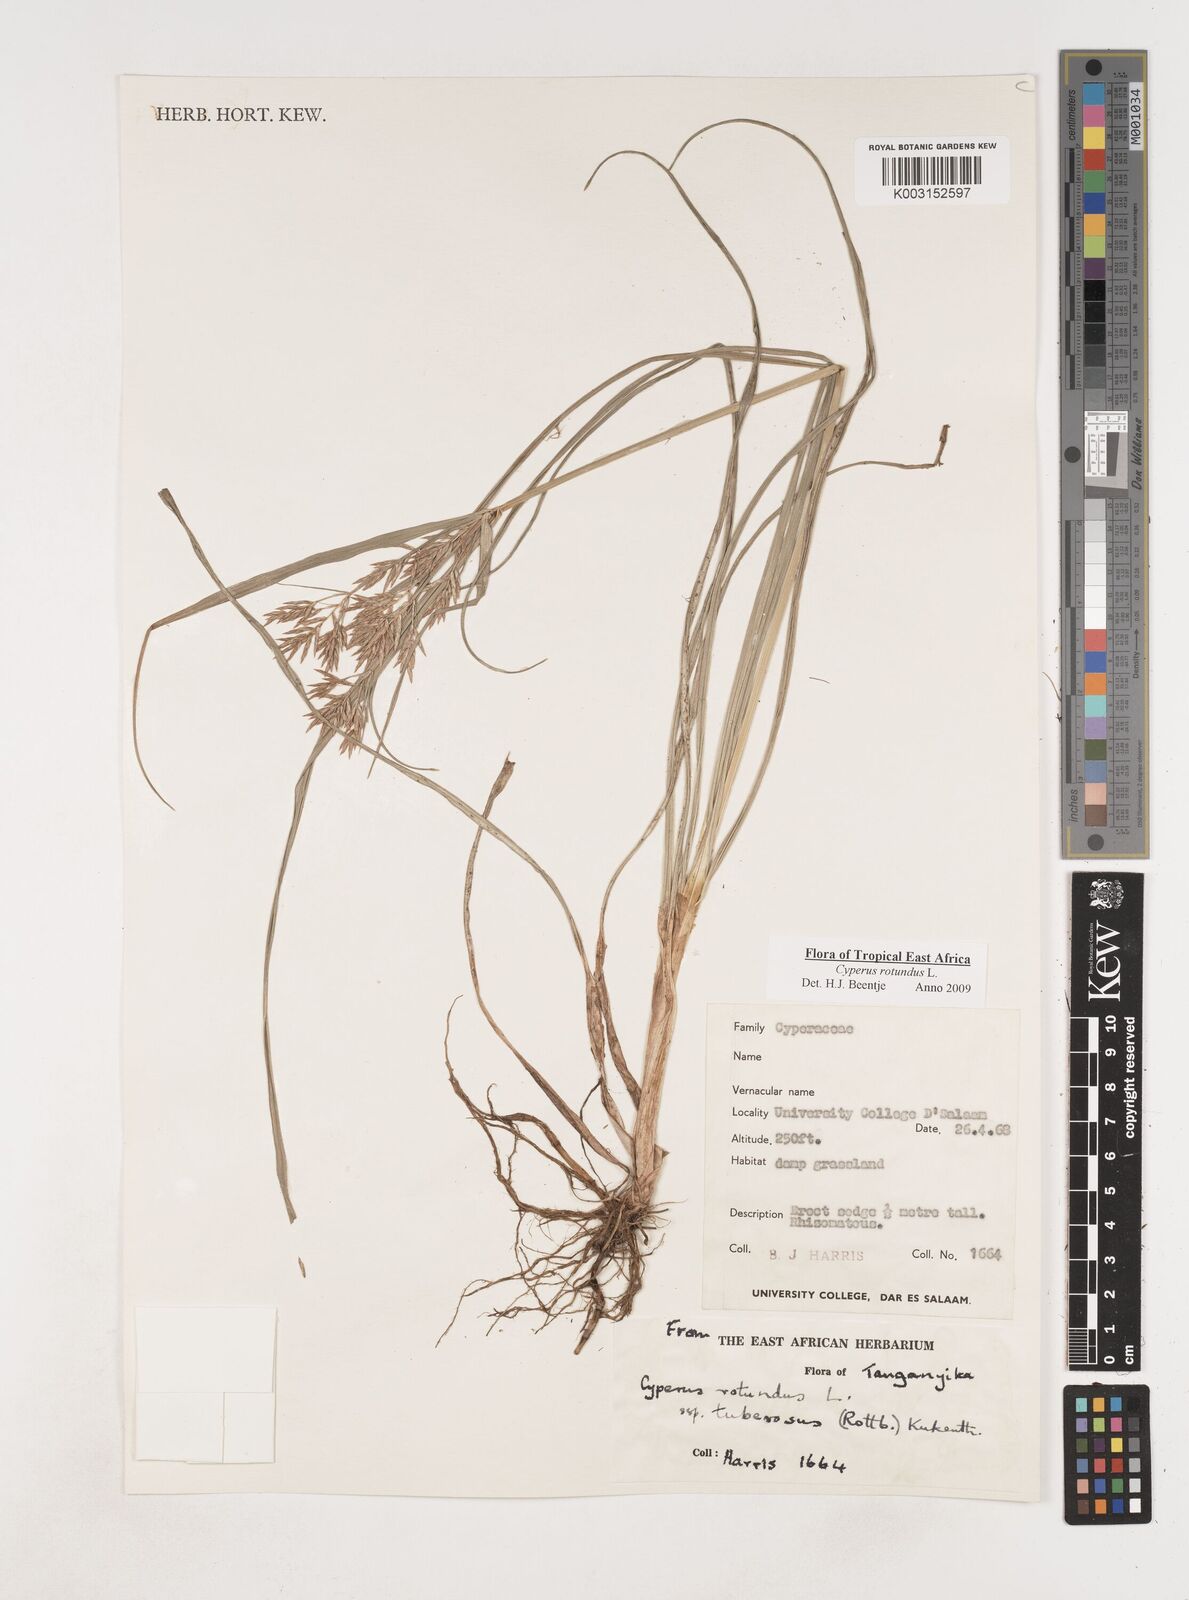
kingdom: Plantae
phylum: Tracheophyta
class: Liliopsida
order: Poales
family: Cyperaceae
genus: Cyperus
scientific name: Cyperus tuberosus
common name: Nut grass
